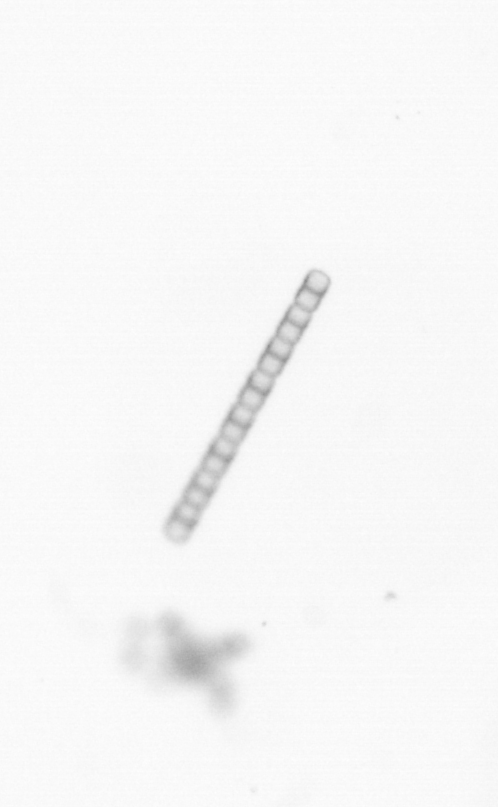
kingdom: Chromista
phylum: Ochrophyta
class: Bacillariophyceae
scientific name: Bacillariophyceae
